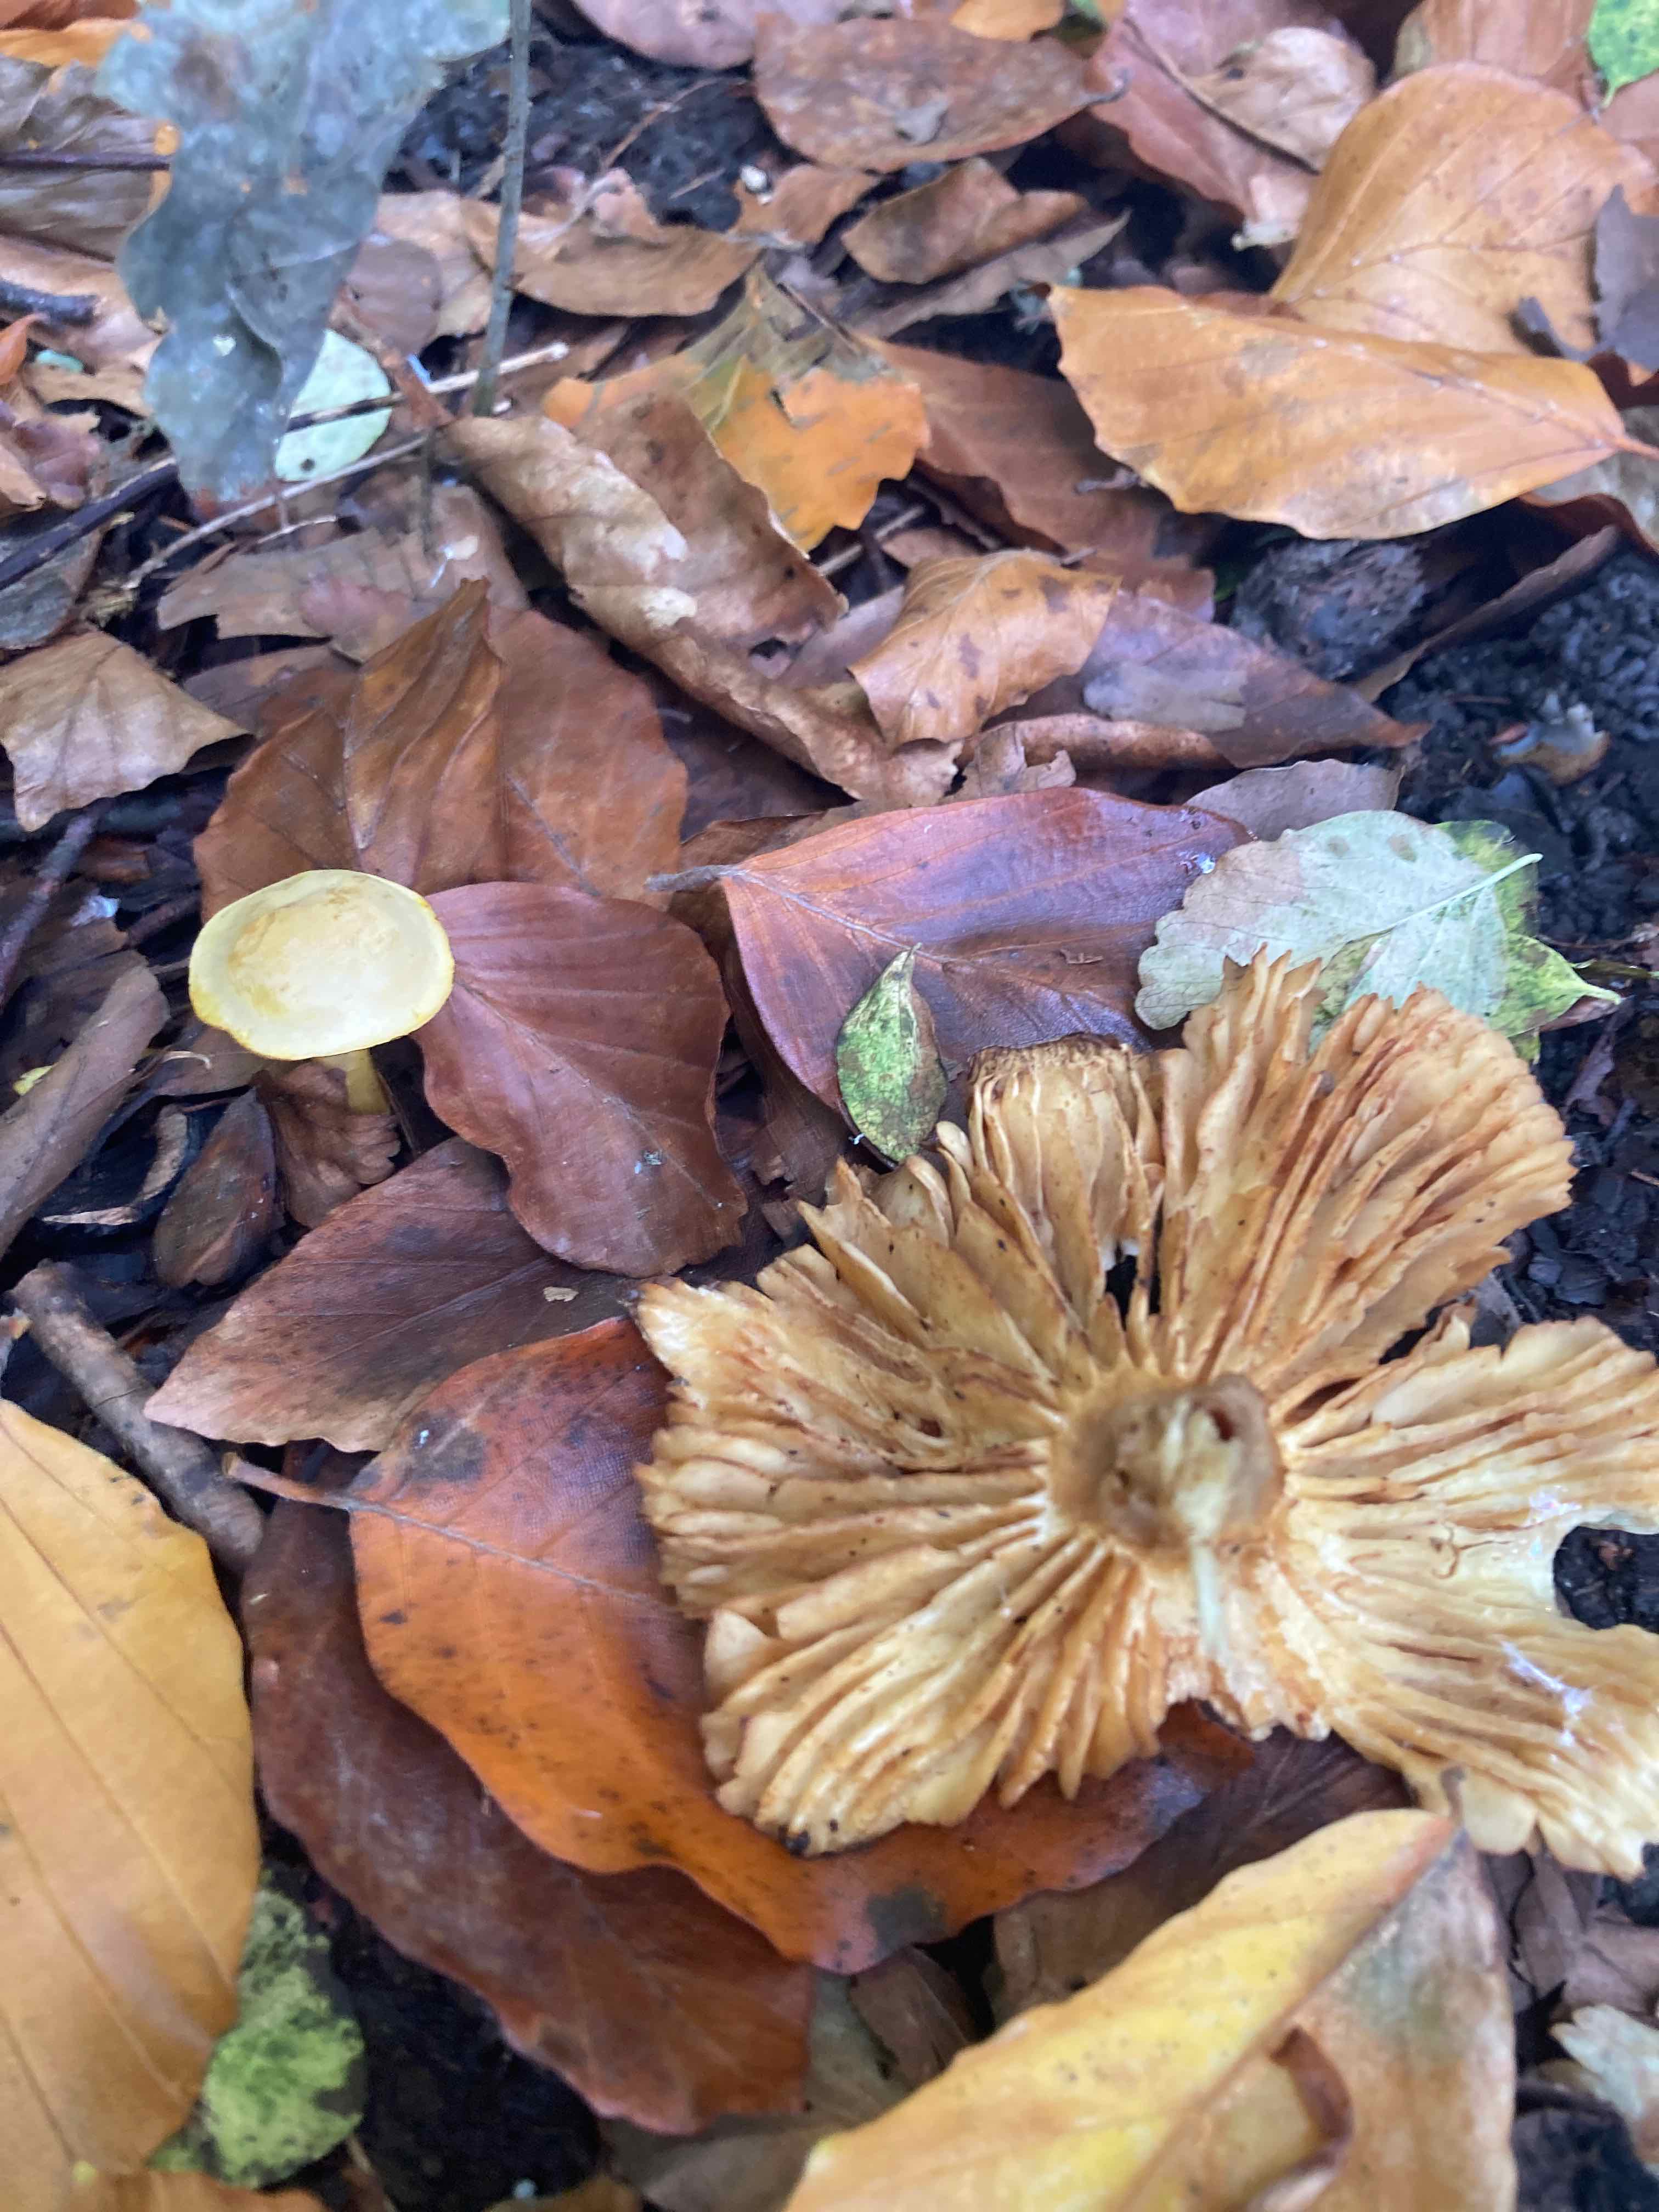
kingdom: Fungi
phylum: Basidiomycota
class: Agaricomycetes
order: Agaricales
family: Tricholomataceae
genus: Tricholoma
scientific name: Tricholoma sulphureum
